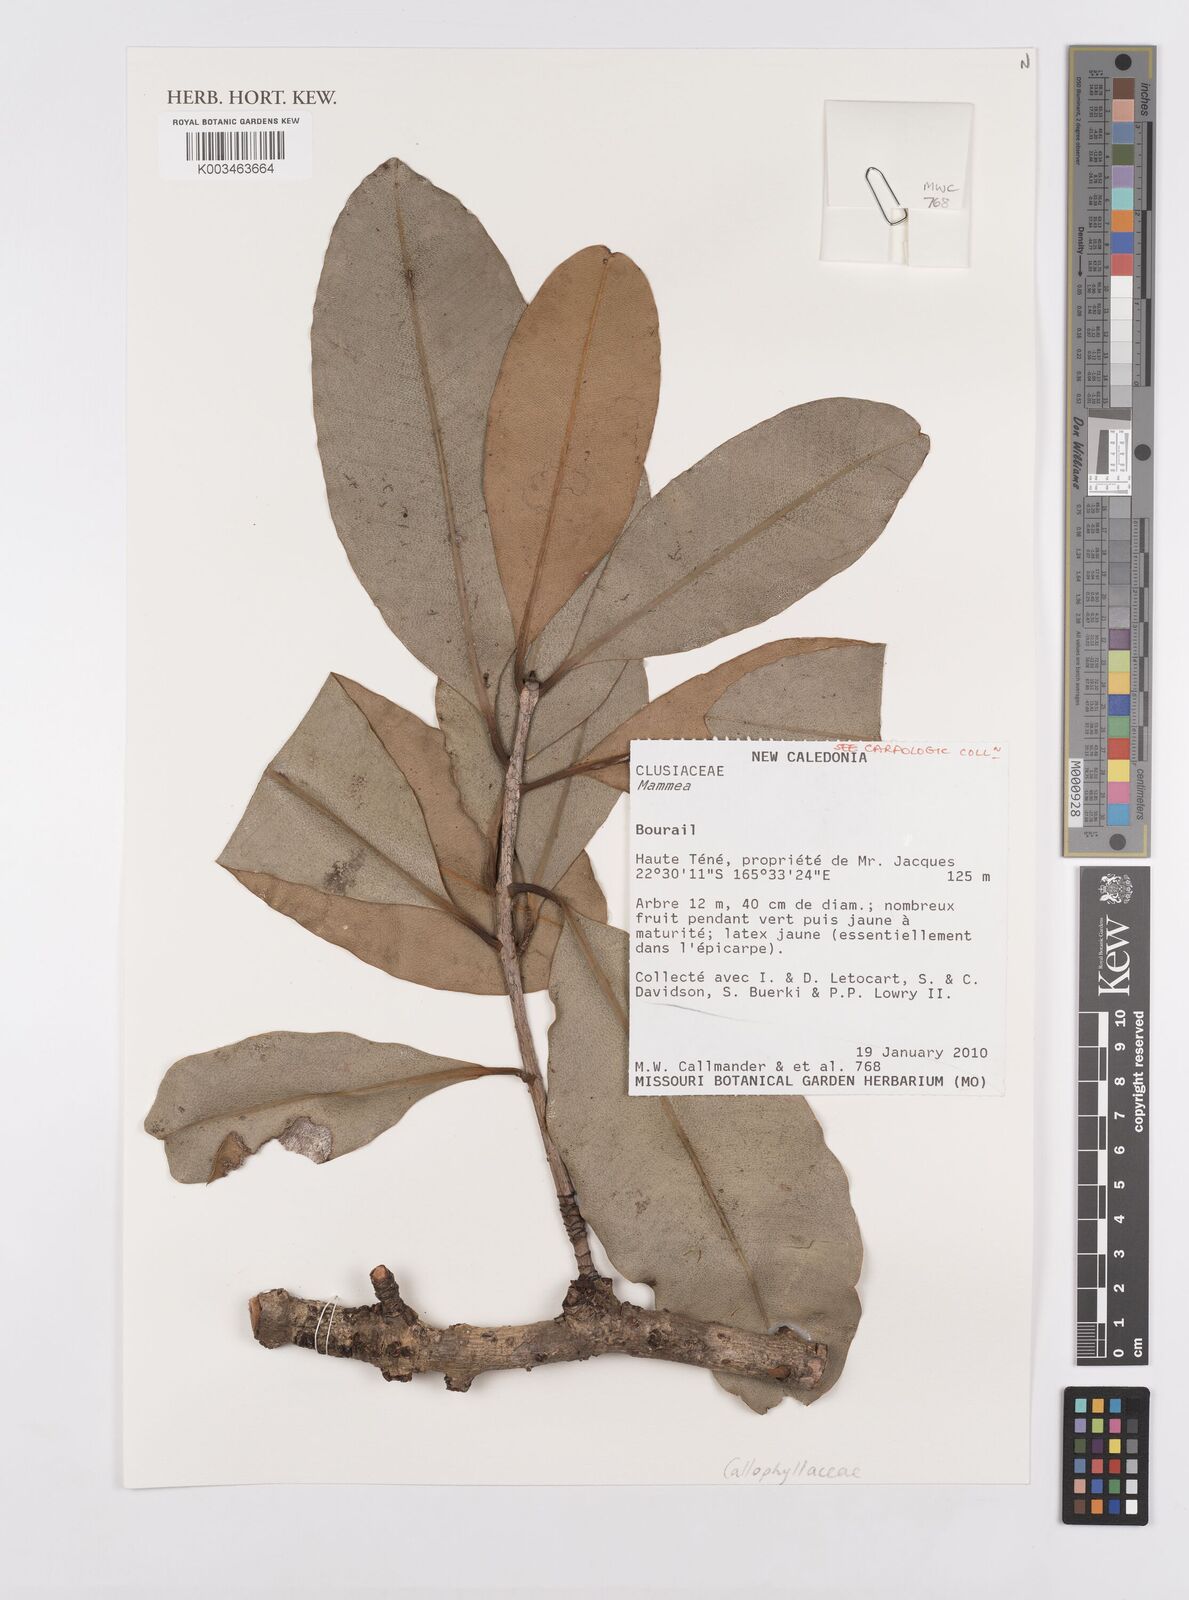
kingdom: Plantae
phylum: Tracheophyta
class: Magnoliopsida
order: Malpighiales
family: Calophyllaceae
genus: Mammea
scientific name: Mammea
